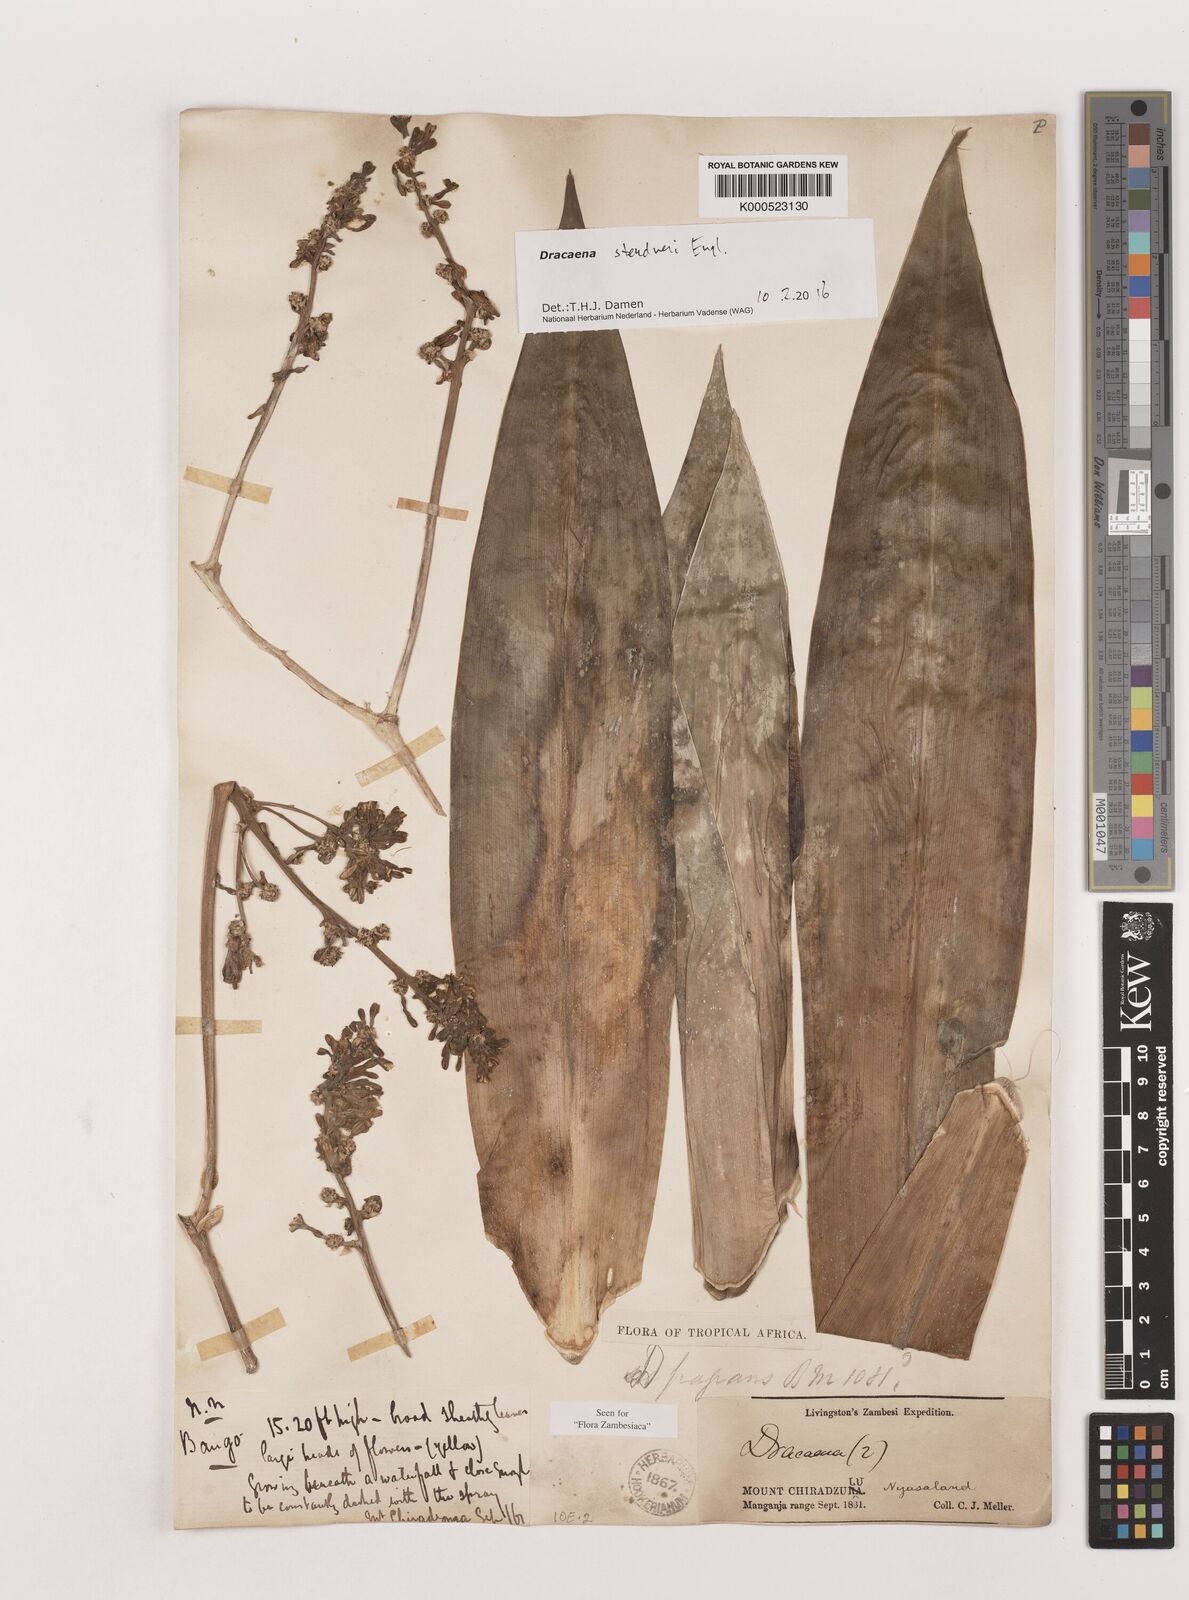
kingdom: Plantae
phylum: Tracheophyta
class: Liliopsida
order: Asparagales
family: Asparagaceae
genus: Dracaena
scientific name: Dracaena steudneri
